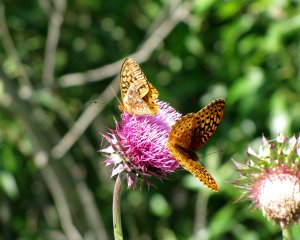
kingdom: Animalia
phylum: Arthropoda
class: Insecta
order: Lepidoptera
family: Nymphalidae
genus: Speyeria
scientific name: Speyeria cybele
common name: Great Spangled Fritillary
